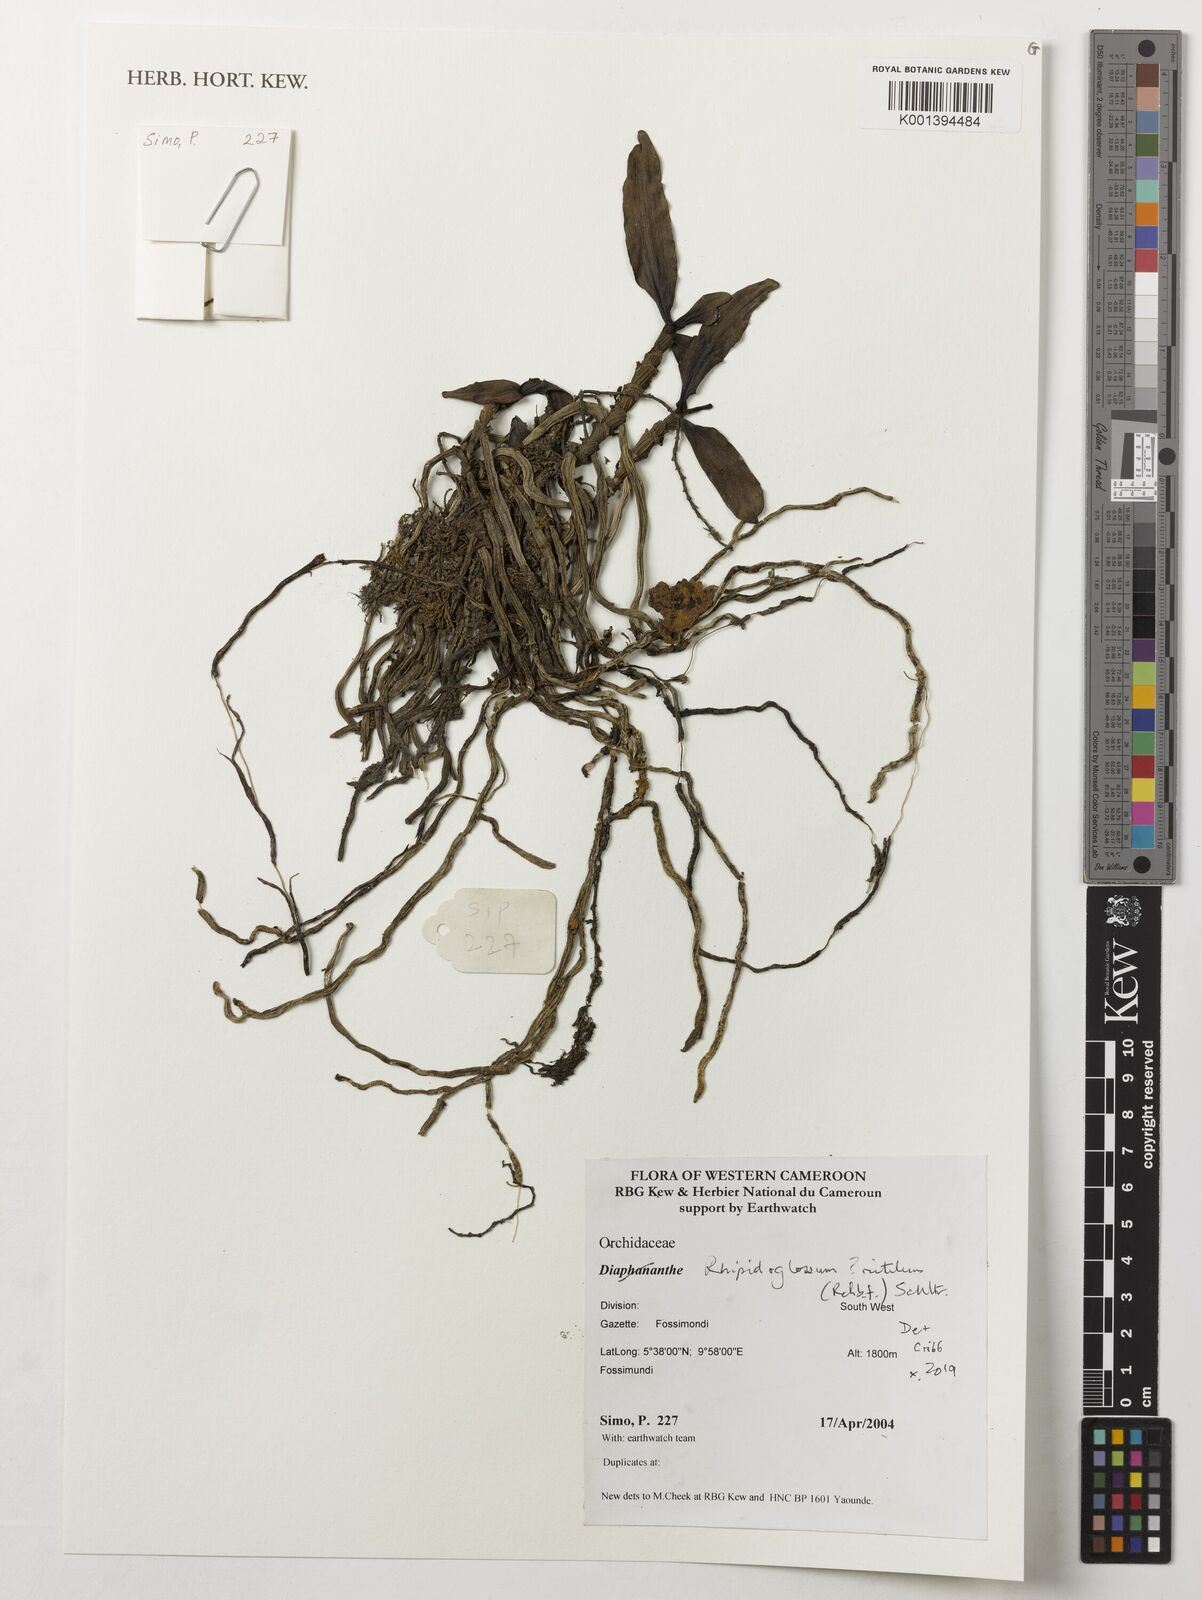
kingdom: Plantae
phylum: Tracheophyta
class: Liliopsida
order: Asparagales
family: Orchidaceae
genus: Rhipidoglossum
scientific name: Rhipidoglossum rutilum
